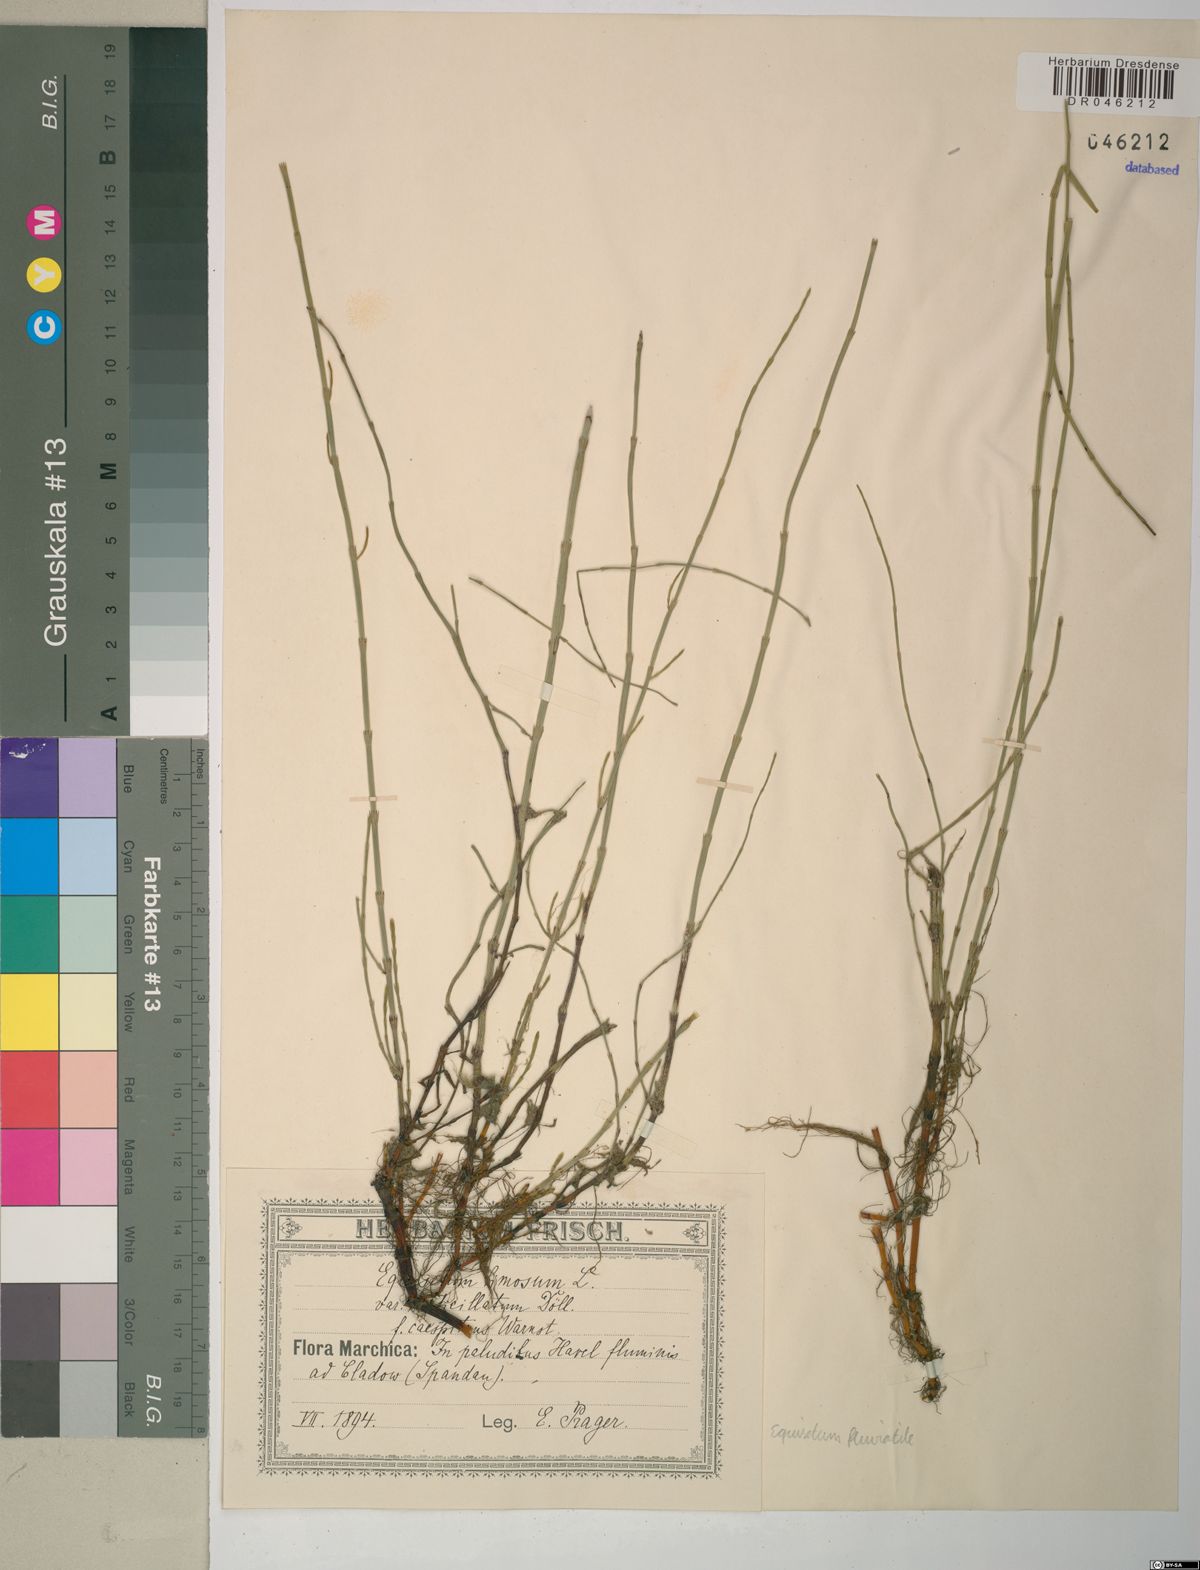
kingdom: Plantae
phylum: Tracheophyta
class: Polypodiopsida
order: Equisetales
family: Equisetaceae
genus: Equisetum
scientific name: Equisetum fluviatile
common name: Water horsetail
